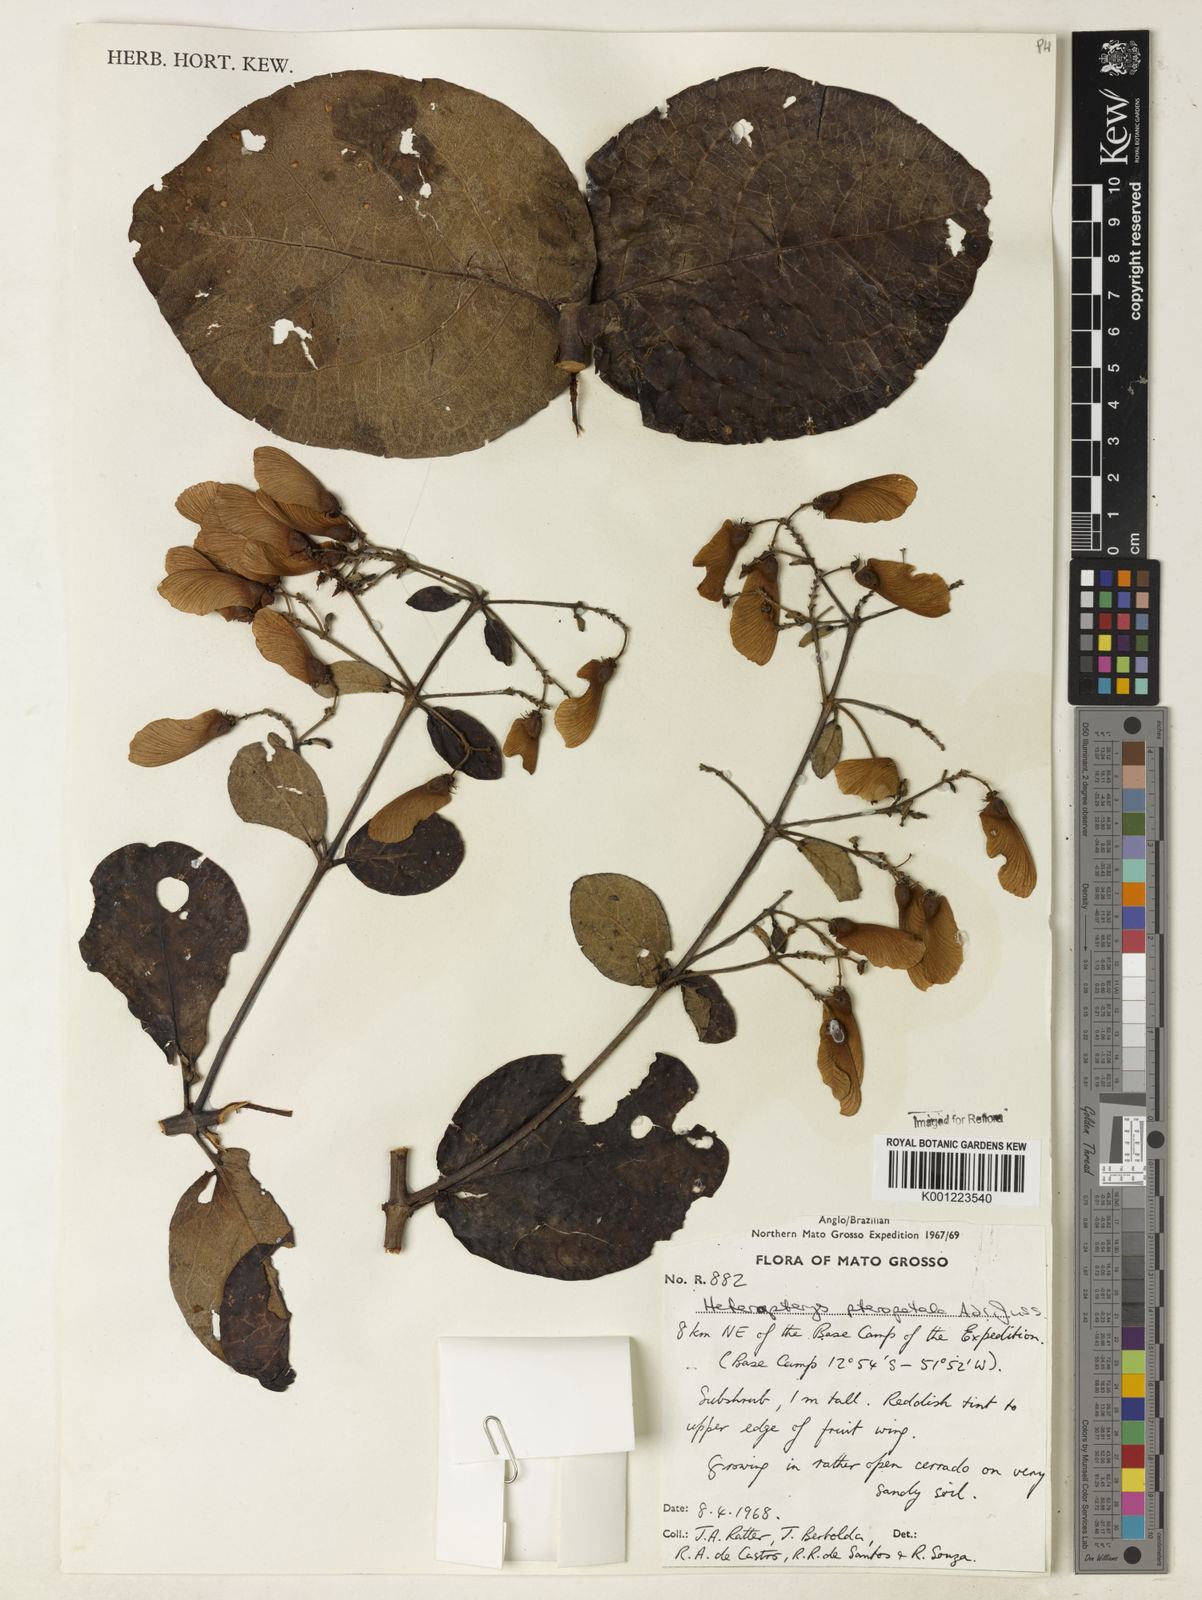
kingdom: Plantae
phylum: Tracheophyta
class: Magnoliopsida
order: Malpighiales
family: Malpighiaceae
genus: Heteropterys
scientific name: Heteropterys pteropetala
